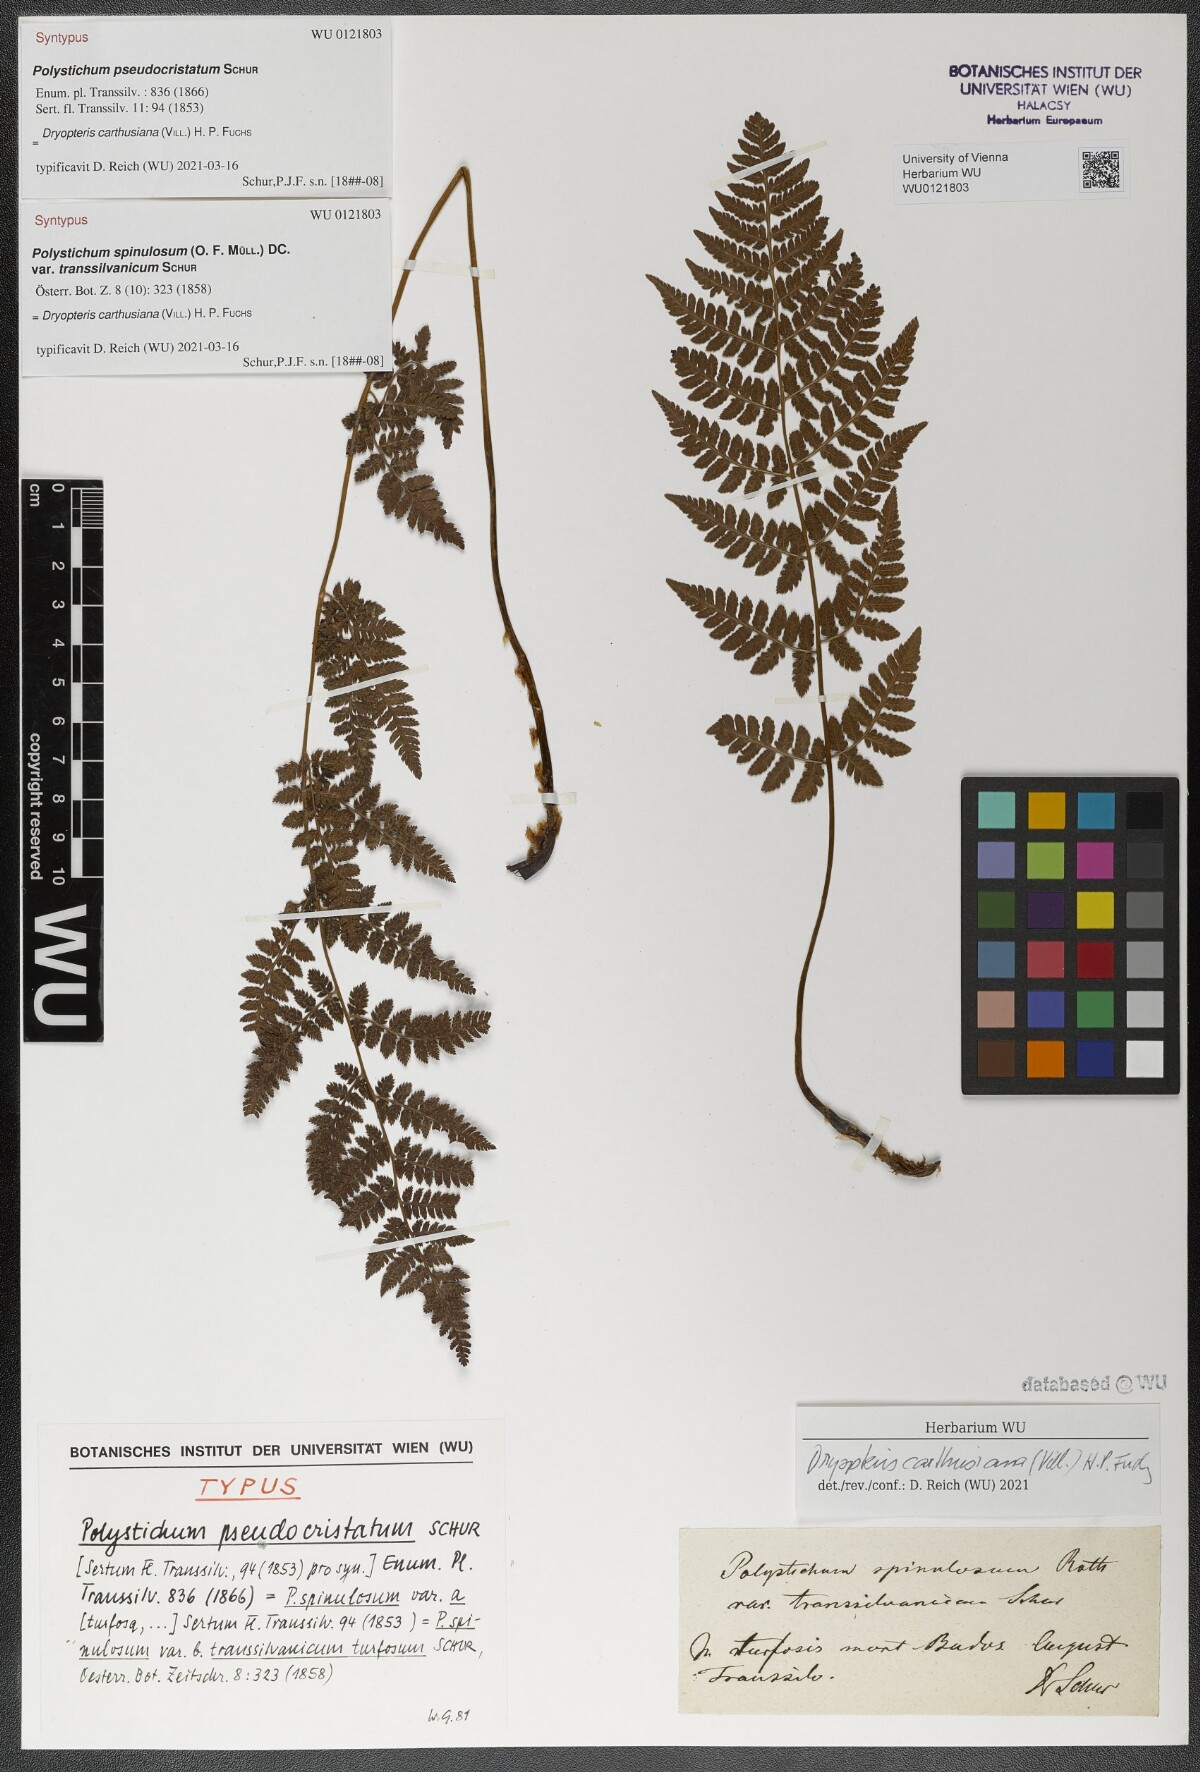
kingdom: Plantae
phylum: Tracheophyta
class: Polypodiopsida
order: Polypodiales
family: Dryopteridaceae
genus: Dryopteris
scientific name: Dryopteris carthusiana
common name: Narrow buckler-fern
